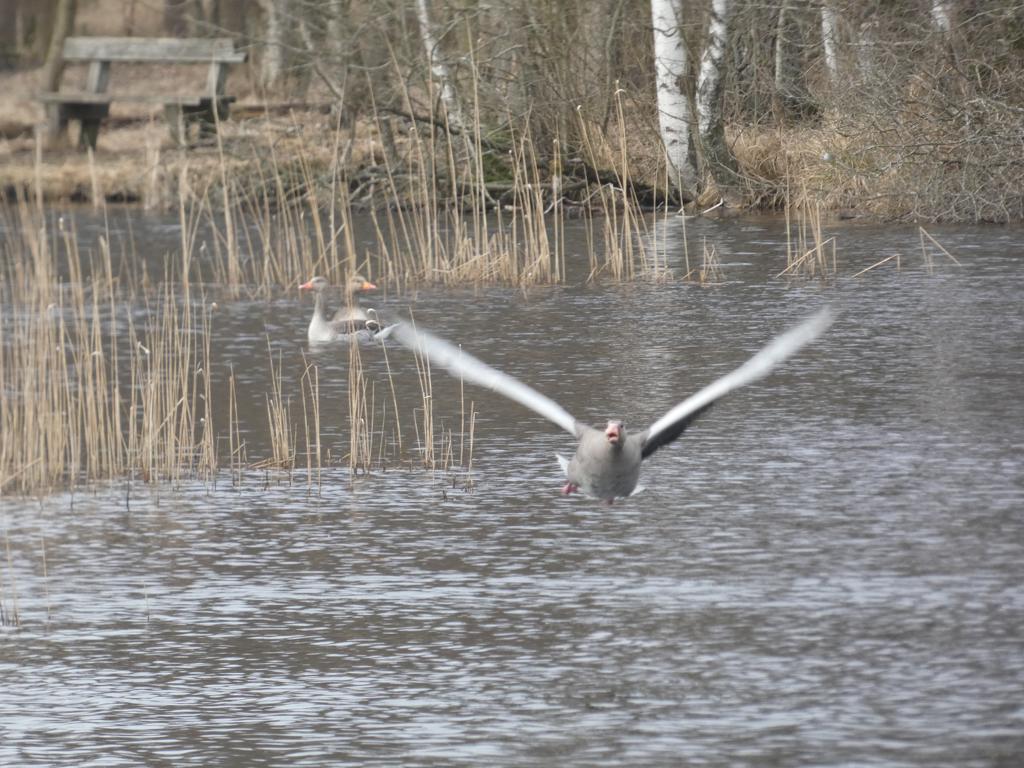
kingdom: Animalia
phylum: Chordata
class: Aves
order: Anseriformes
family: Anatidae
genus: Anser
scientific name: Anser anser
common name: Grågås
